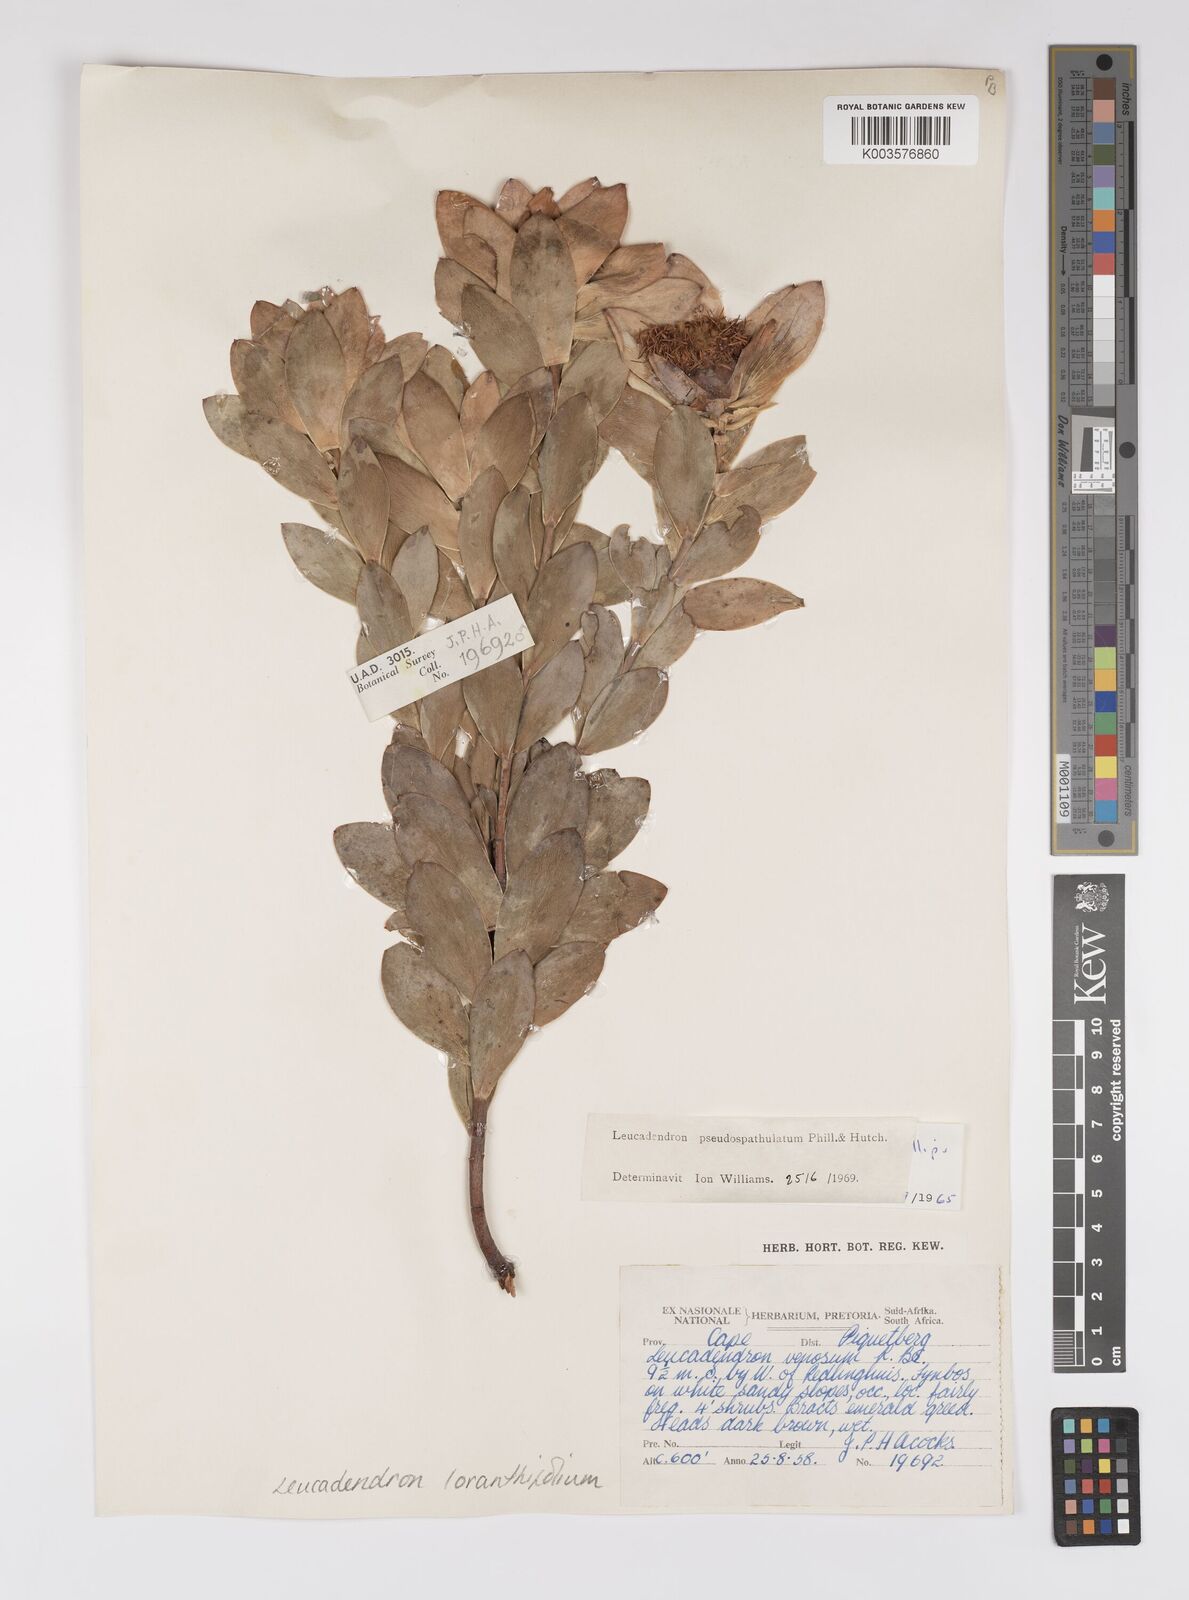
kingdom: Plantae
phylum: Tracheophyta
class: Magnoliopsida
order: Proteales
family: Proteaceae
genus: Leucadendron
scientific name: Leucadendron loranthifolium
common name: Green-flower sunbush
